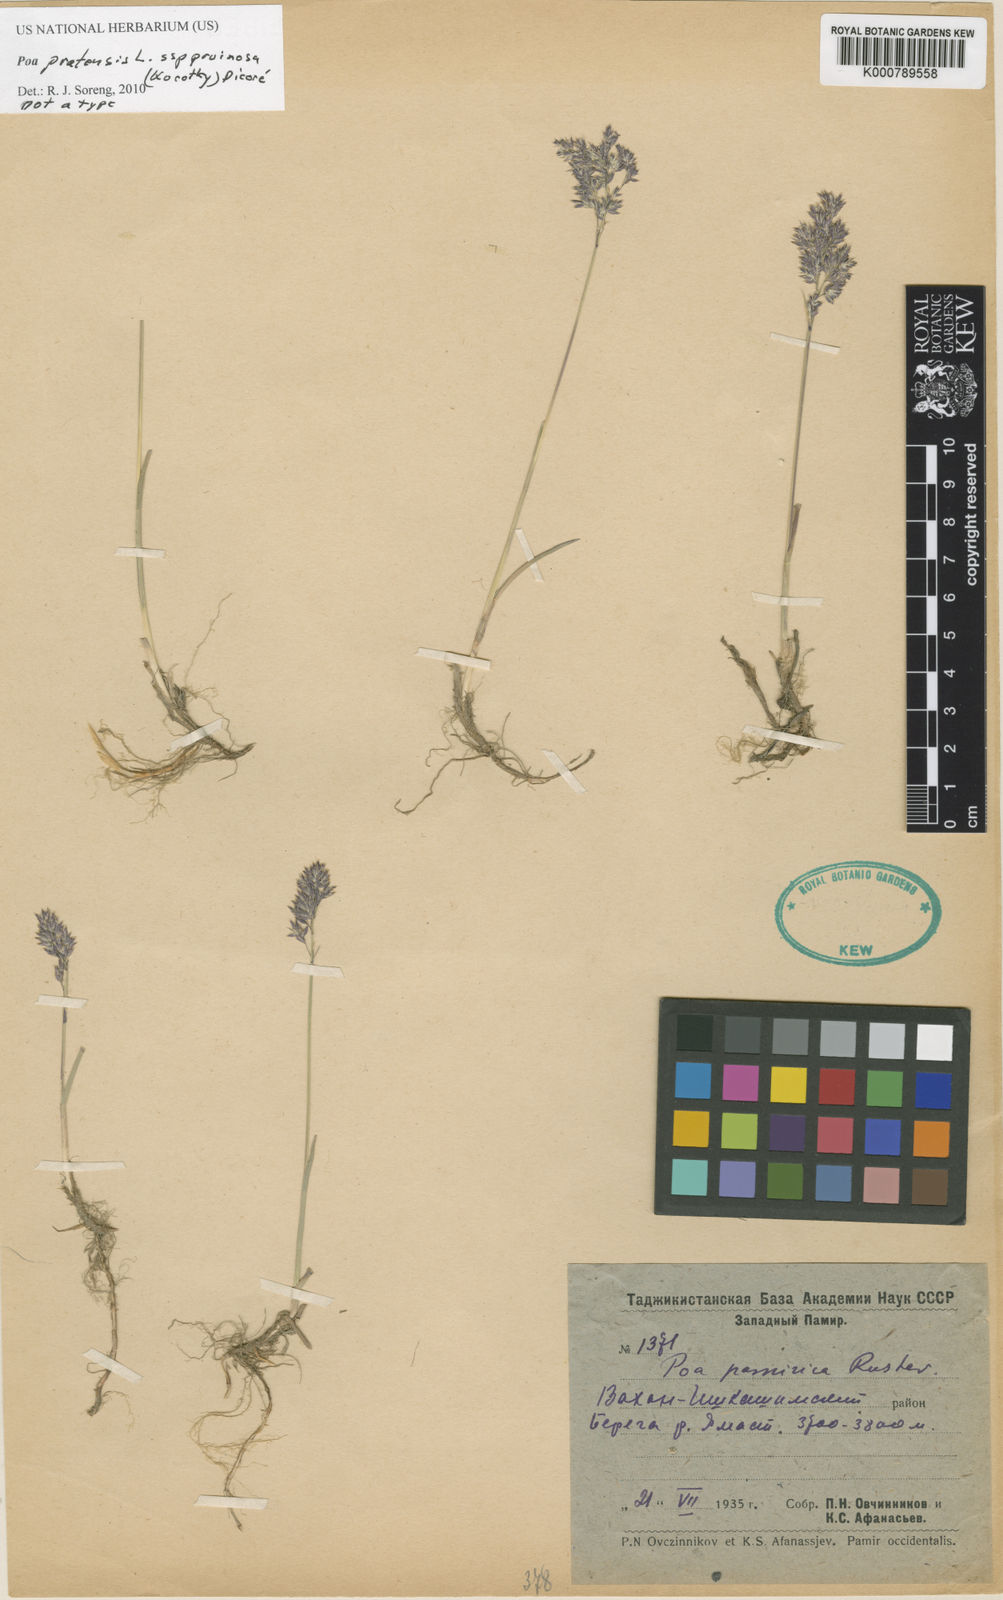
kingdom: Plantae
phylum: Tracheophyta
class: Liliopsida
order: Poales
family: Poaceae
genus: Poa
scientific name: Poa pratensis
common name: Kentucky bluegrass
